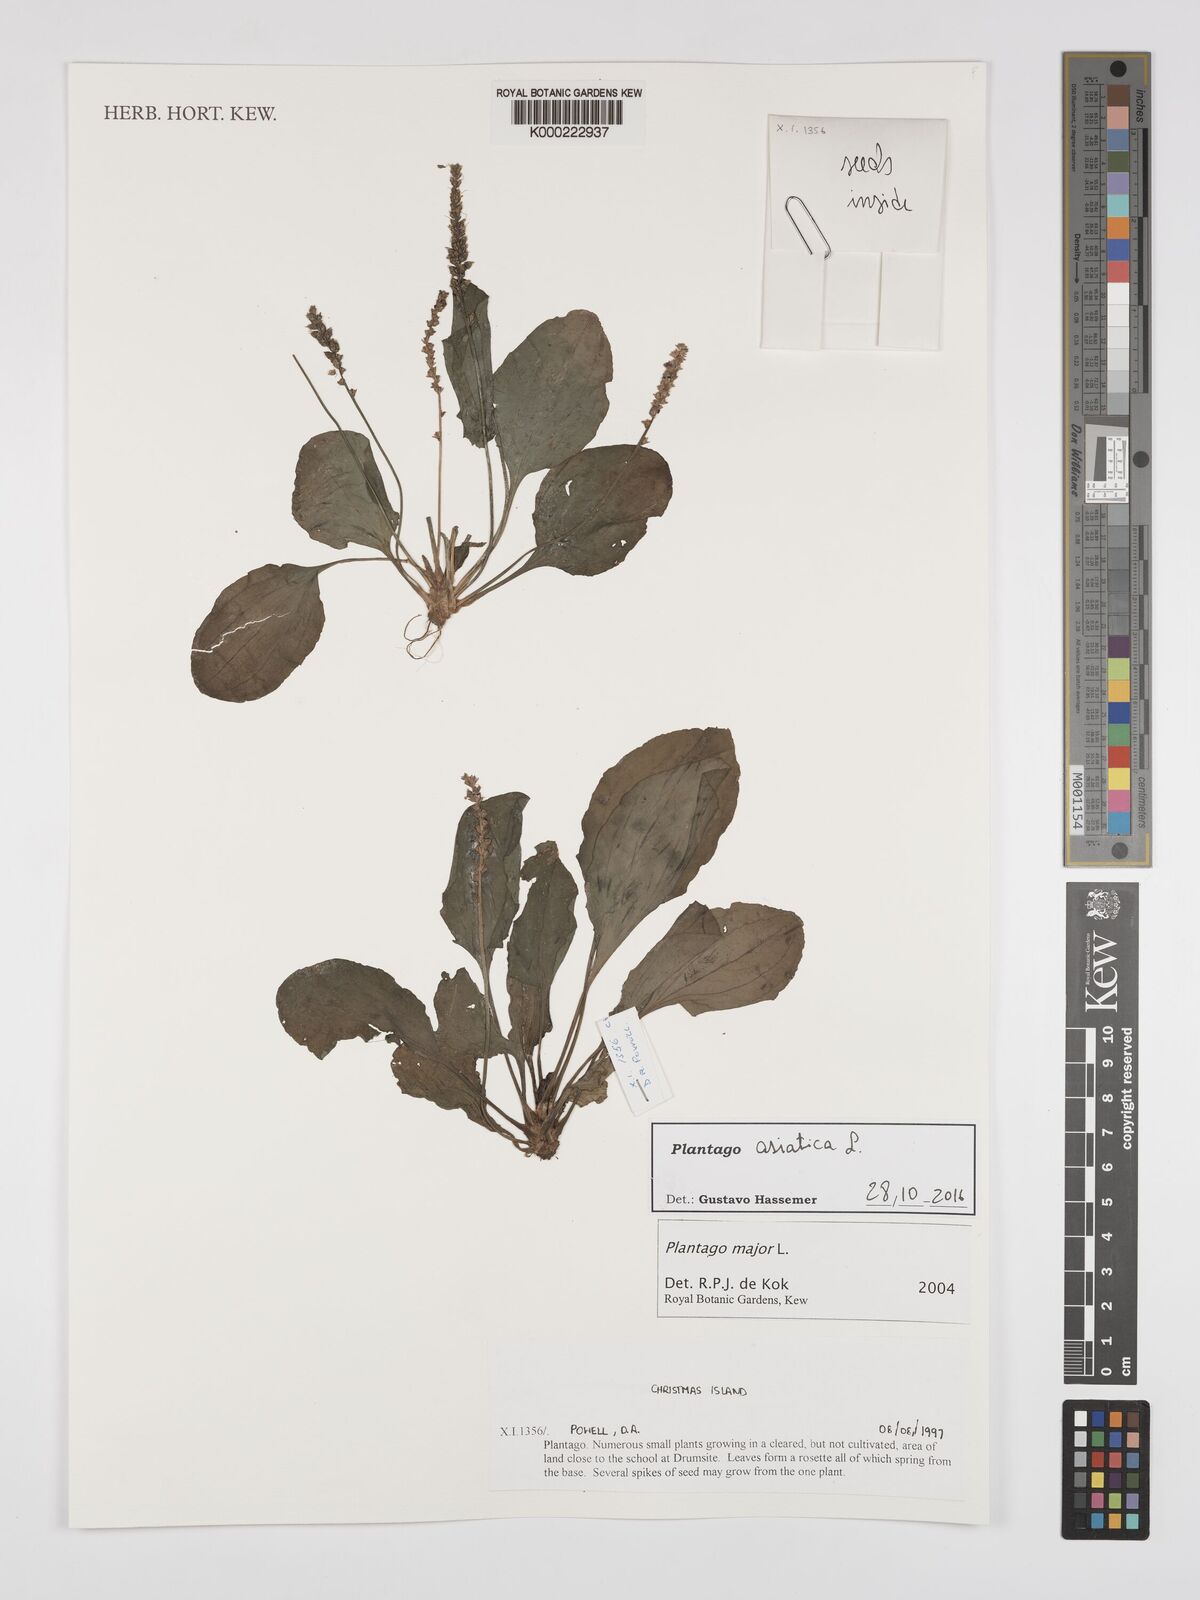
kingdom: Plantae
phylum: Tracheophyta
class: Magnoliopsida
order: Lamiales
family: Plantaginaceae
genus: Plantago
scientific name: Plantago asiatica
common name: Psyllium
